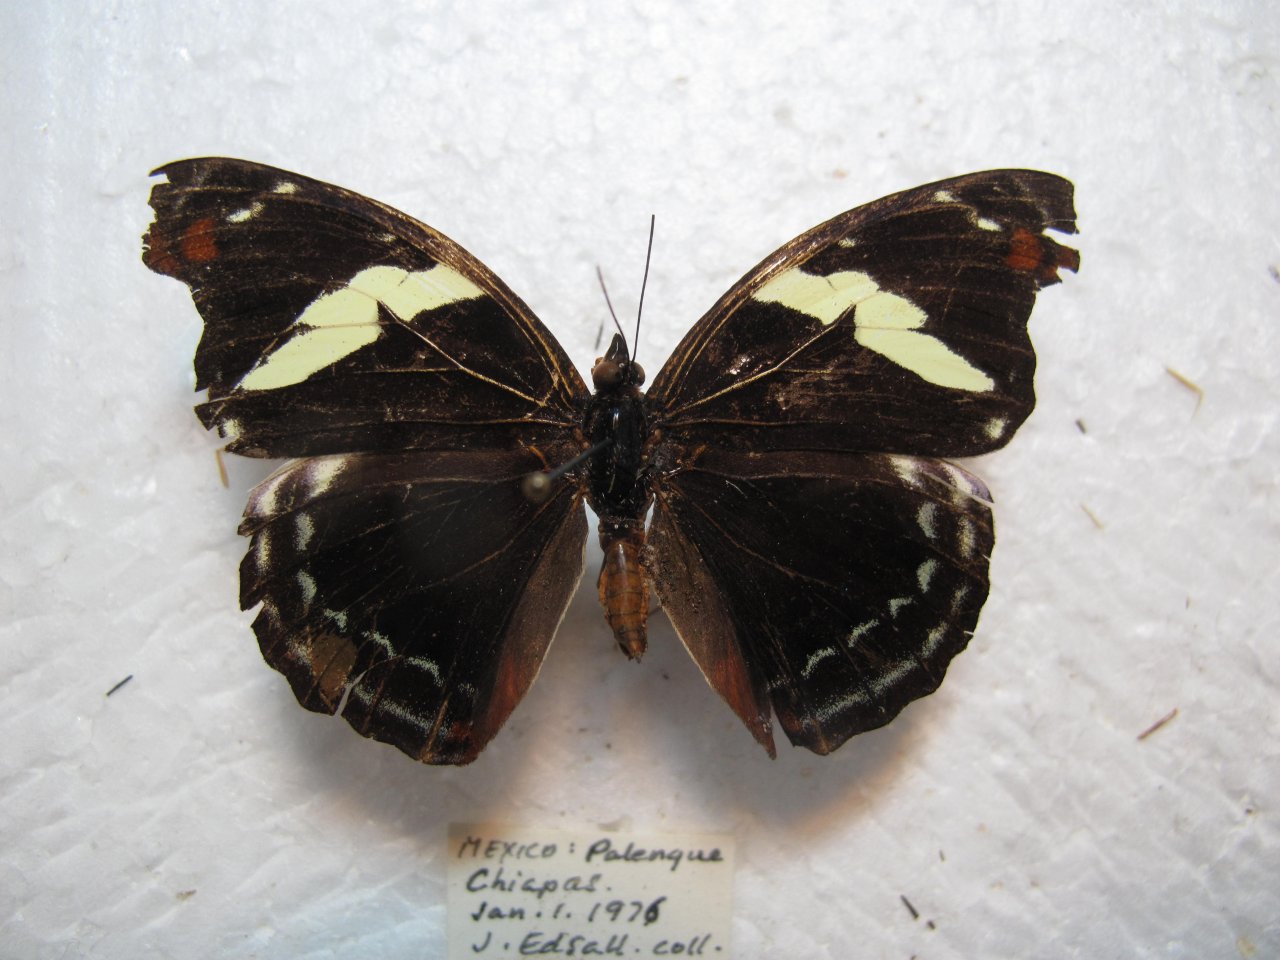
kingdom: Animalia
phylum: Arthropoda
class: Insecta
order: Lepidoptera
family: Nymphalidae
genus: Catonephele
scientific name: Catonephele numilia
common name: Blue-frosted Banner
